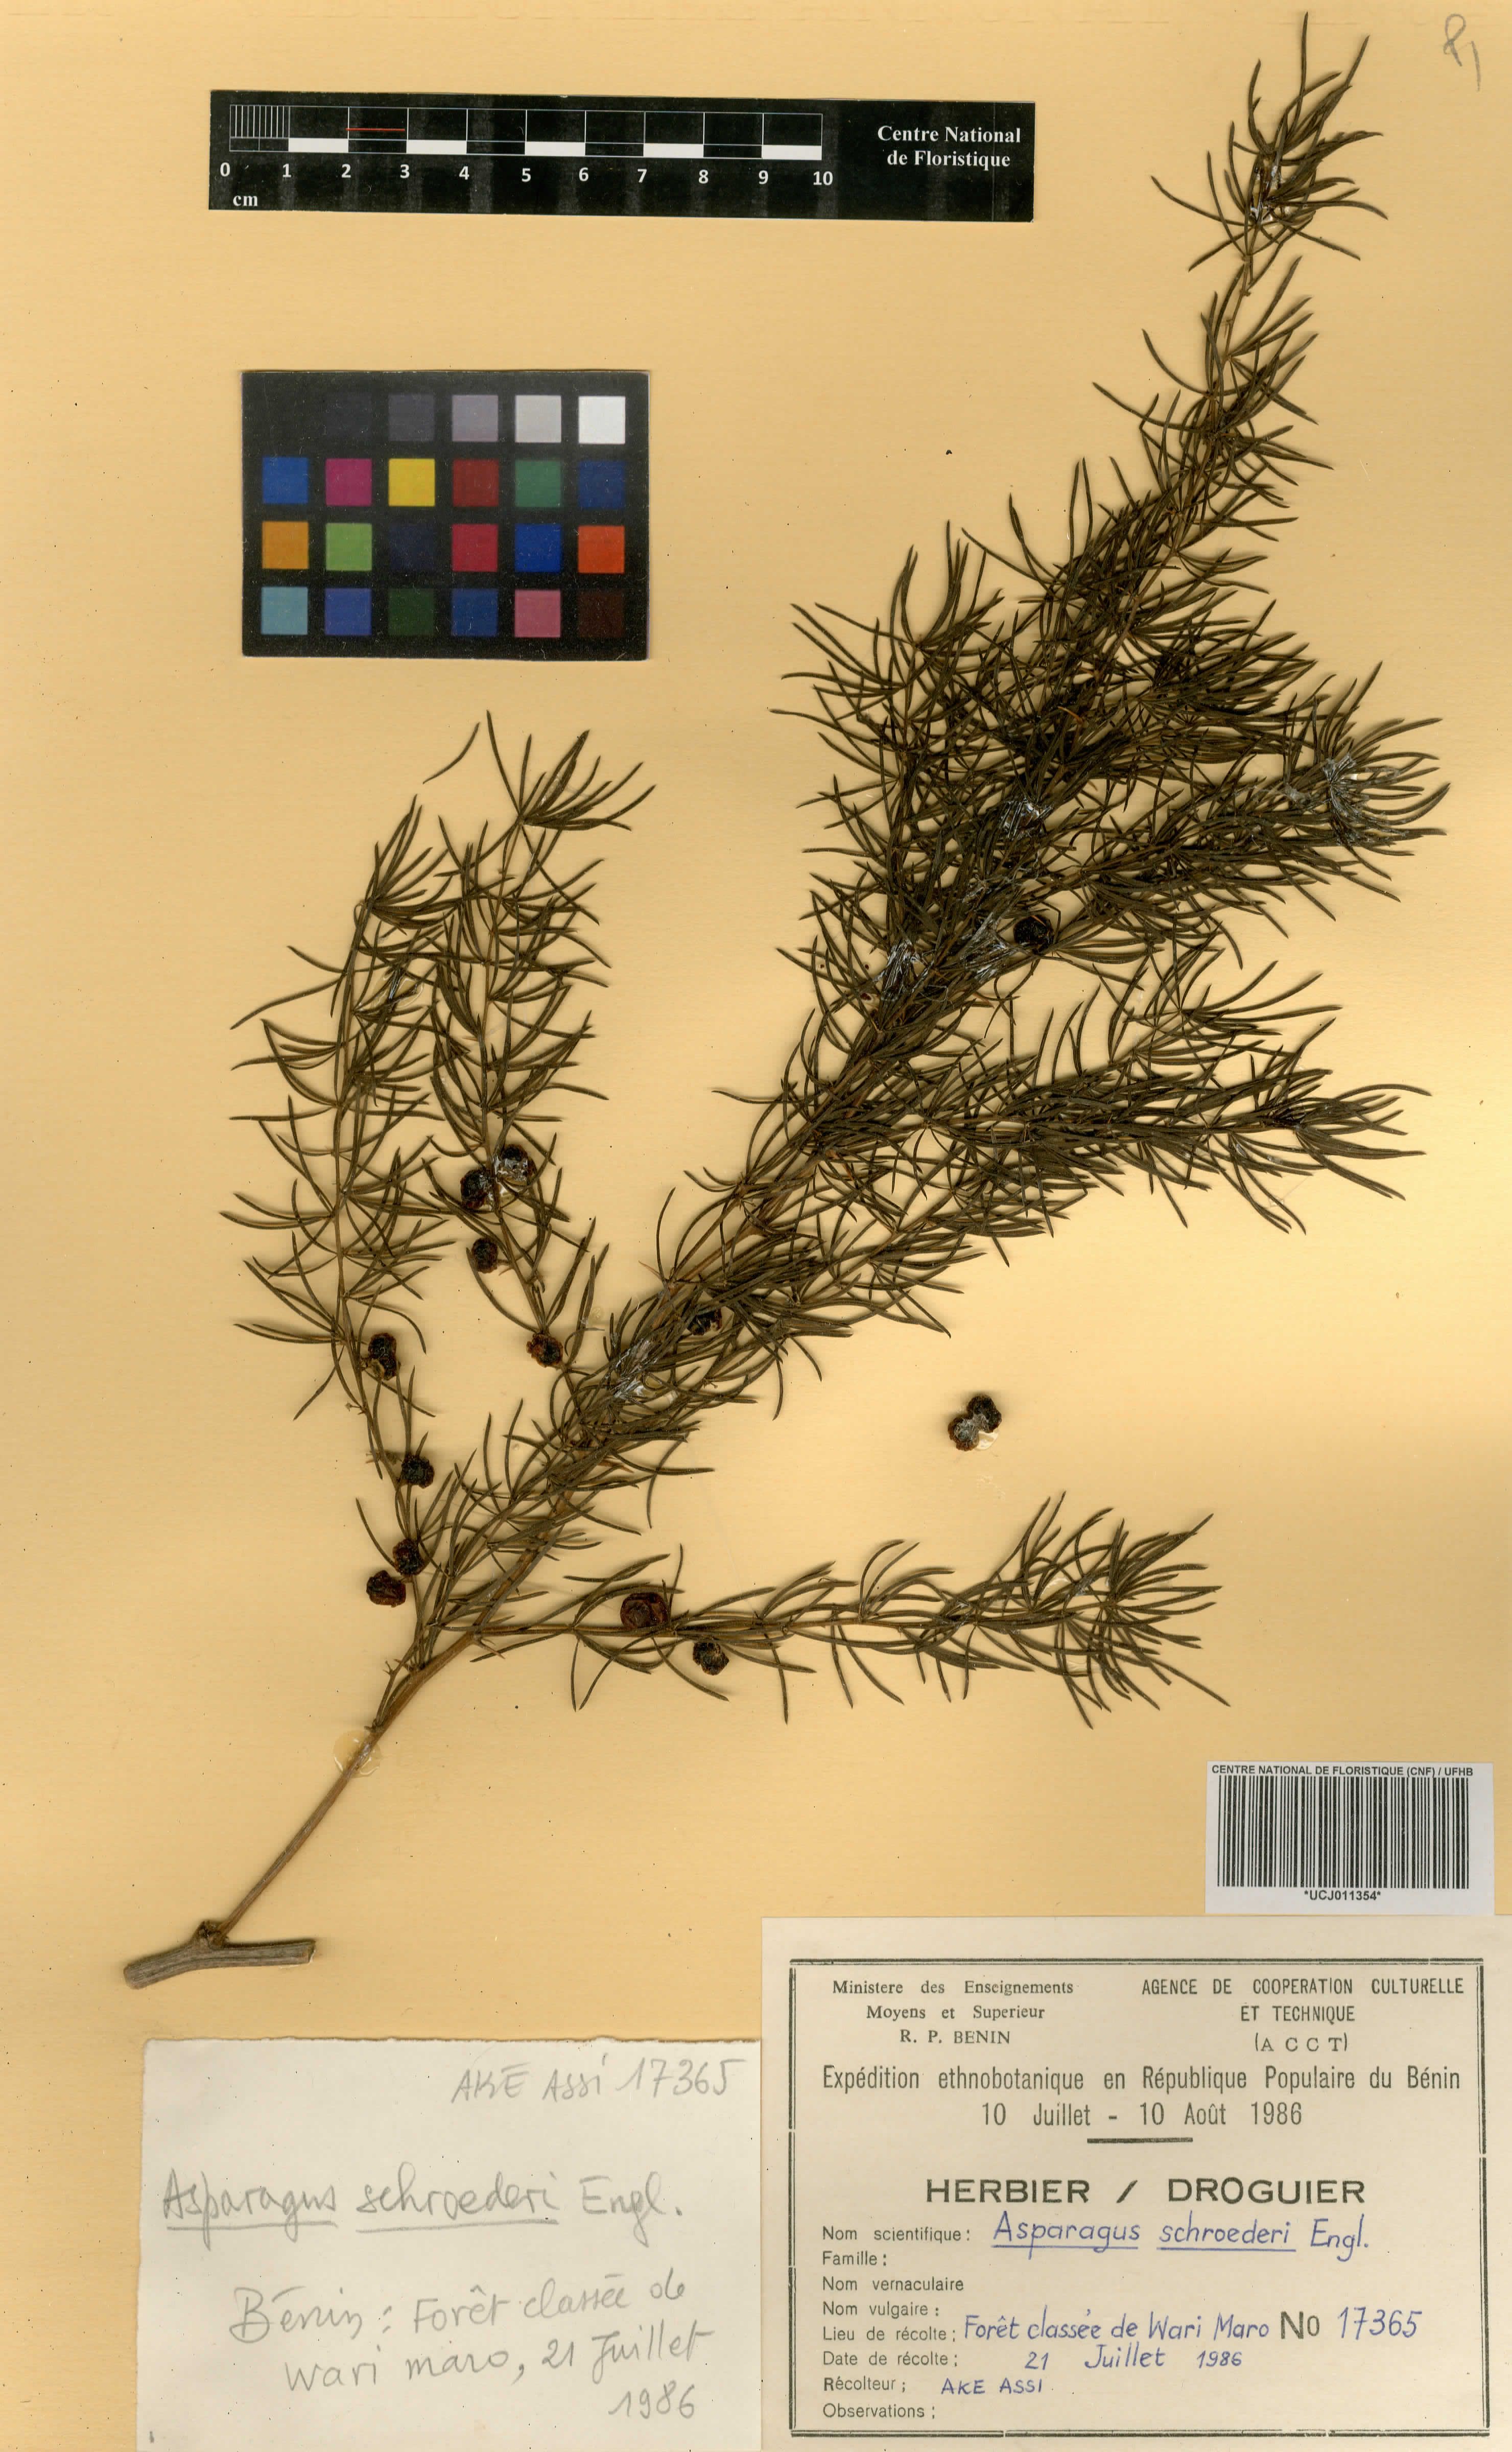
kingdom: Plantae
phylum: Tracheophyta
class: Liliopsida
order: Asparagales
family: Asparagaceae
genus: Asparagus
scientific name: Asparagus schroederi
